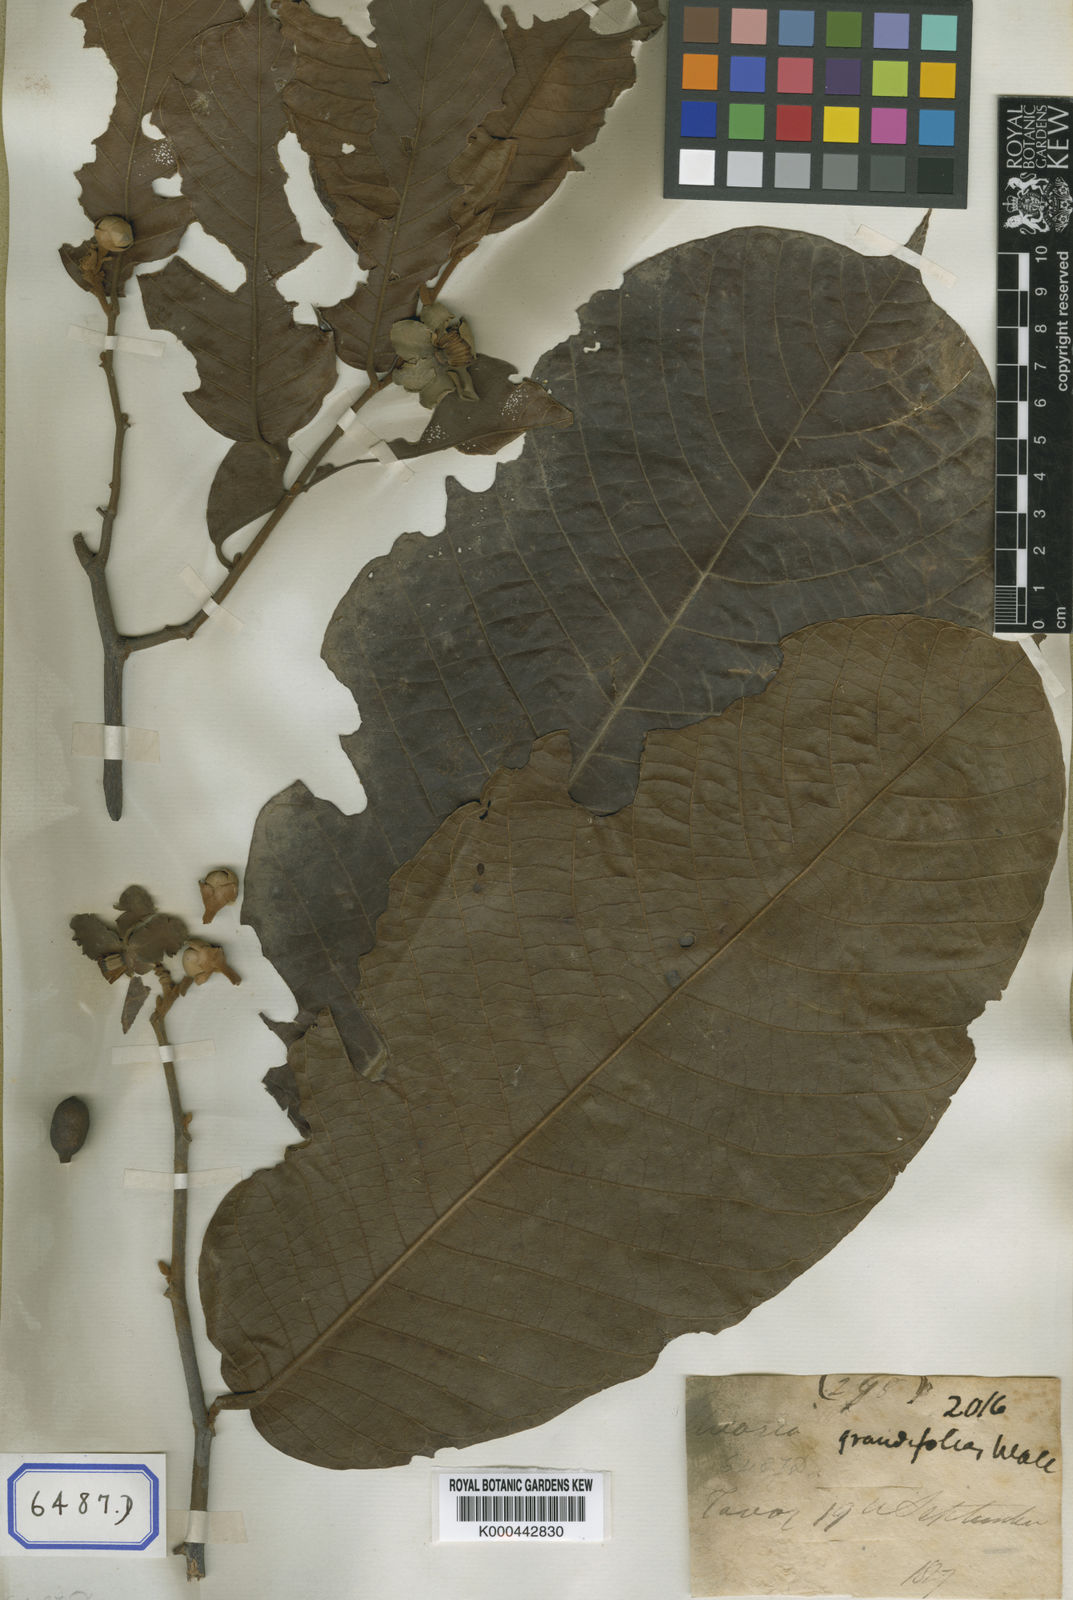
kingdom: Plantae
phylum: Tracheophyta
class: Magnoliopsida
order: Magnoliales
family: Annonaceae
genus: Uvaria
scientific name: Uvaria littoralis
